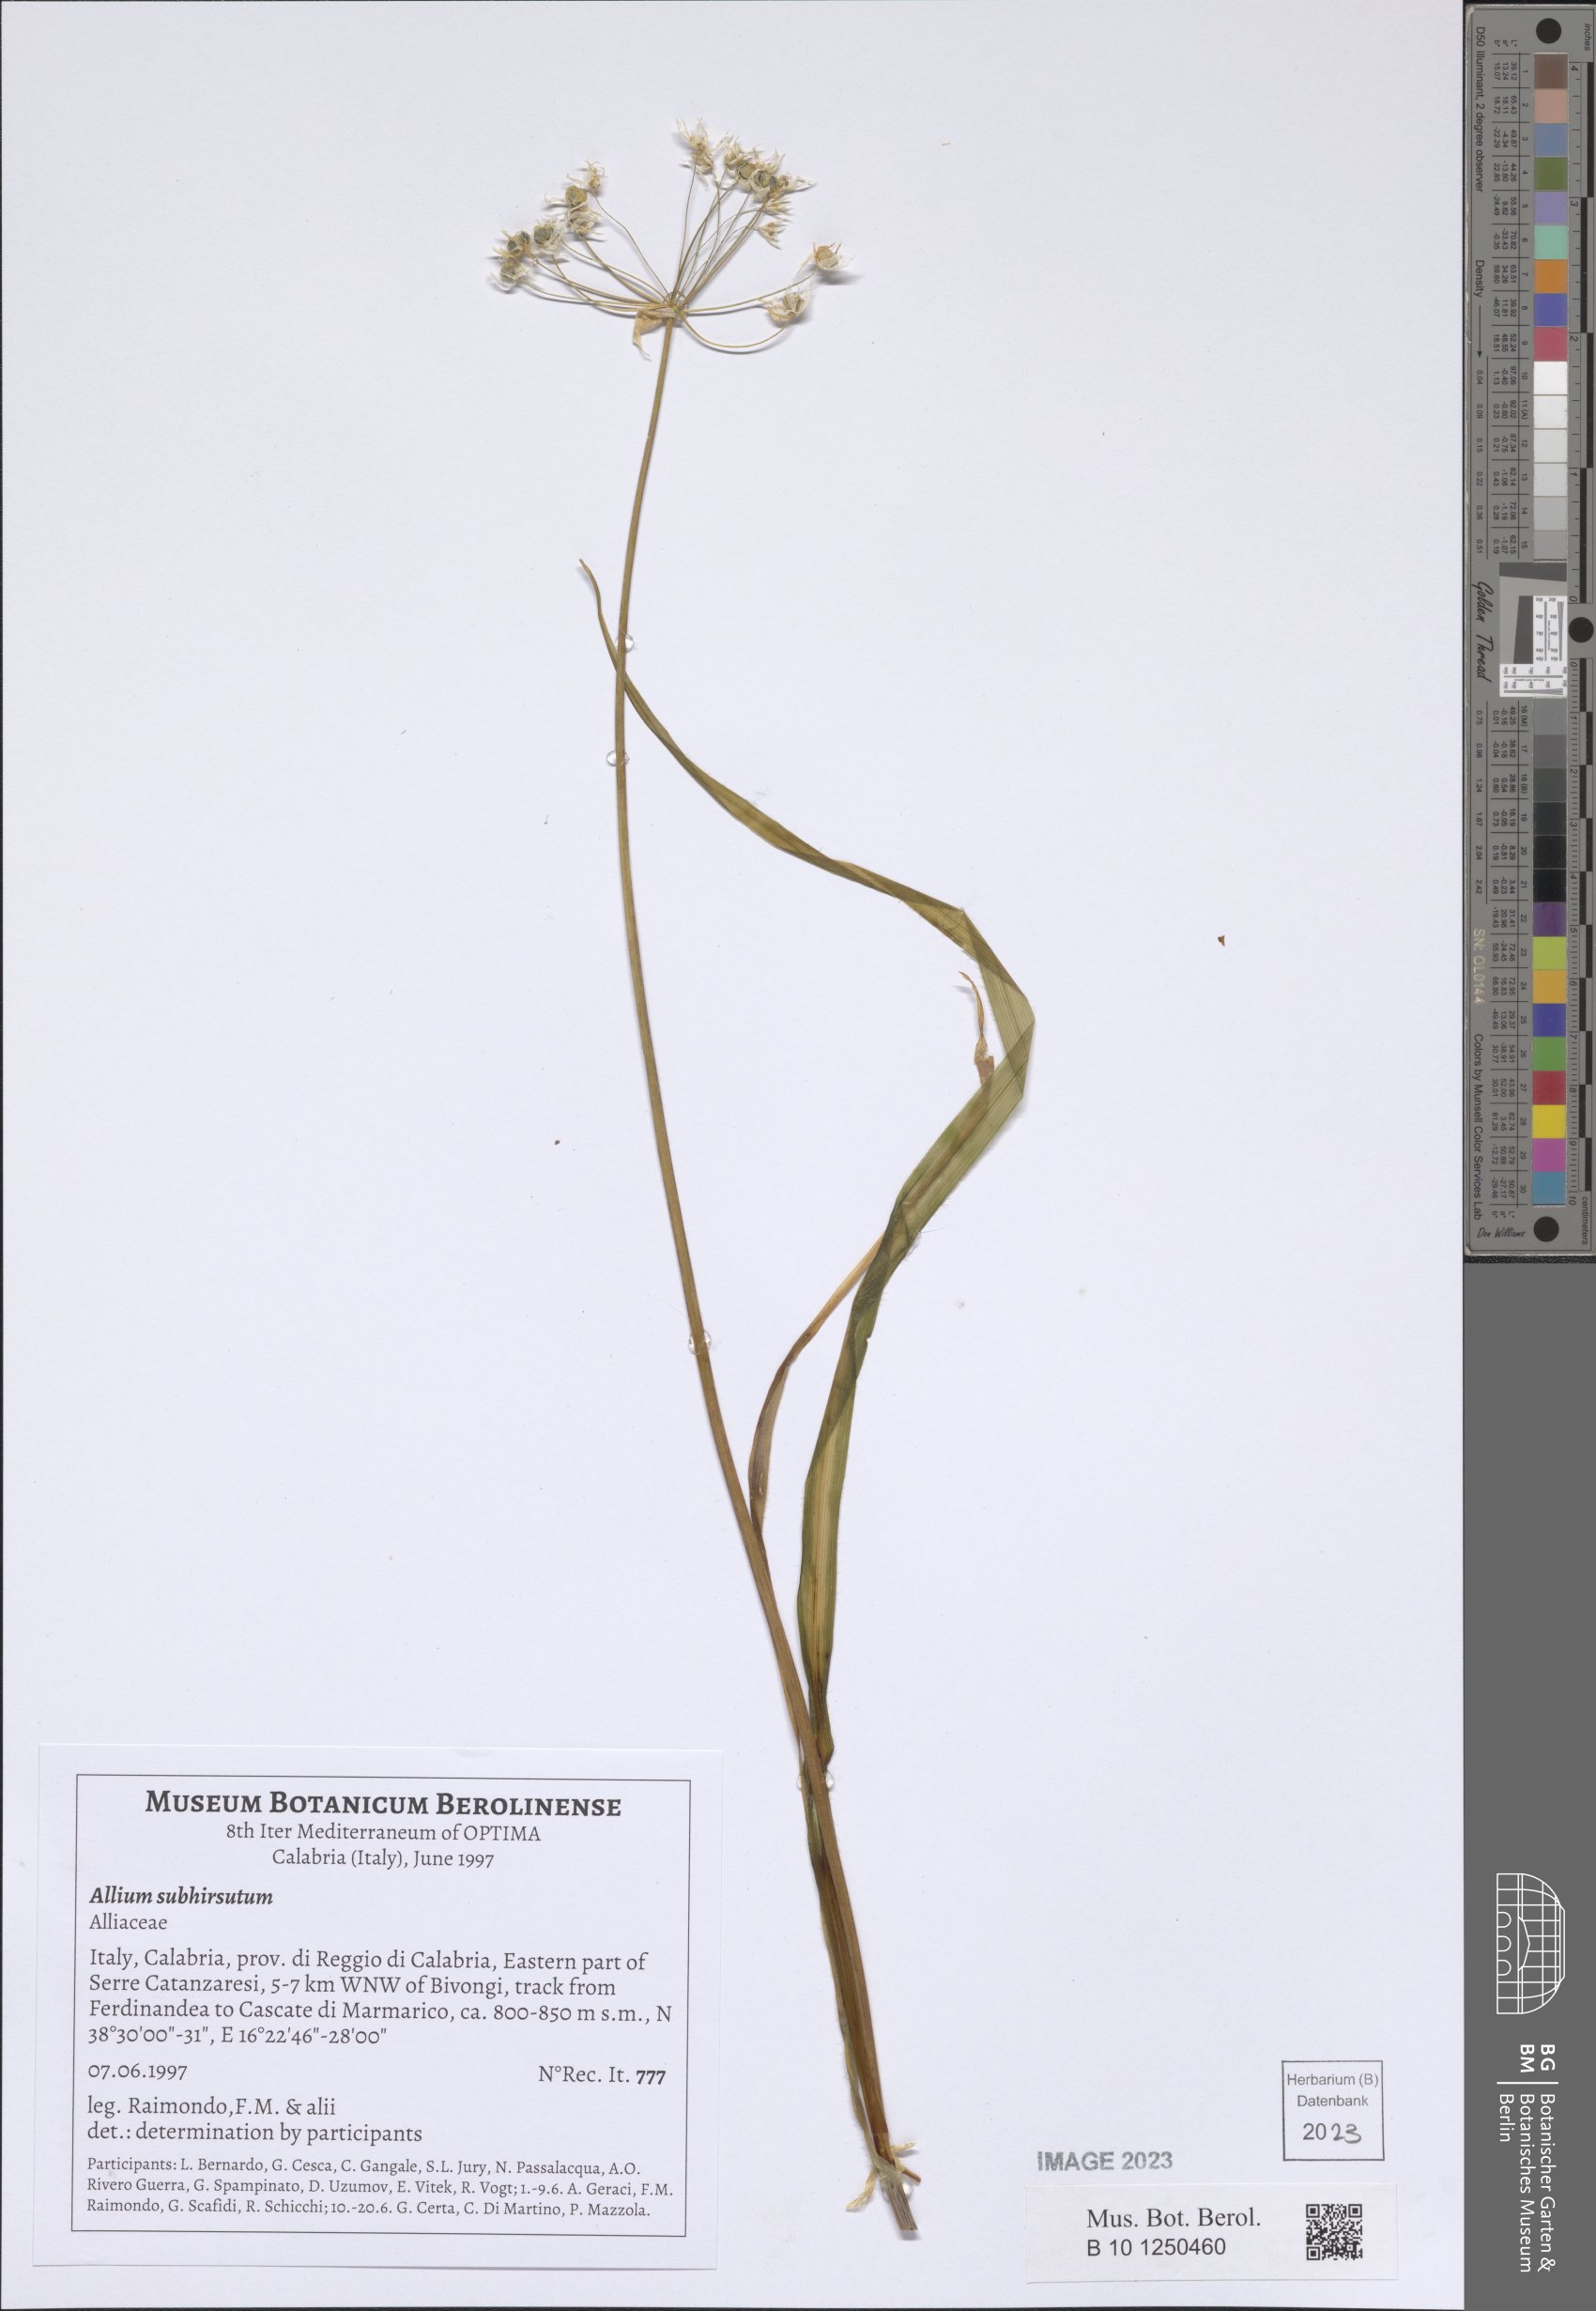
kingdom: Plantae
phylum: Tracheophyta
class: Liliopsida
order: Asparagales
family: Amaryllidaceae
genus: Allium
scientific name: Allium subhirsutum
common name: Hairy garlic
